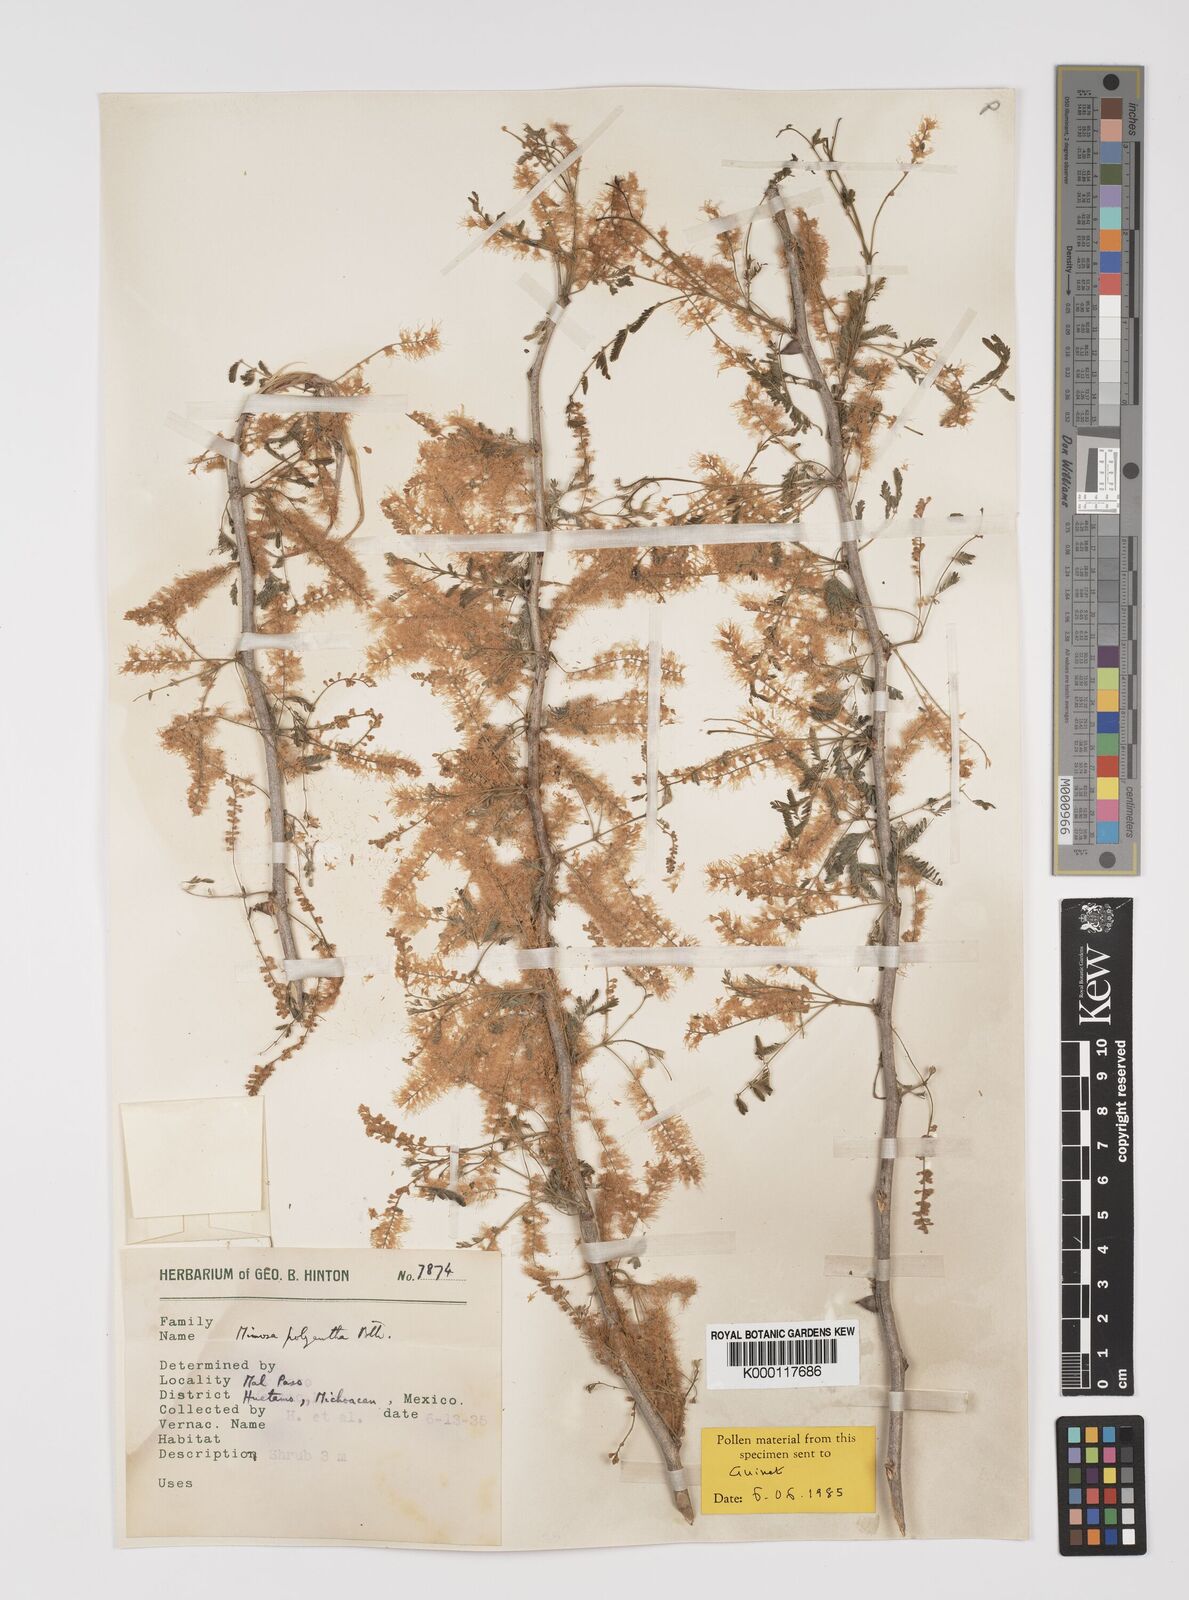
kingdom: Plantae
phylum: Tracheophyta
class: Magnoliopsida
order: Fabales
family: Fabaceae
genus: Mimosa
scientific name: Mimosa polyantha
